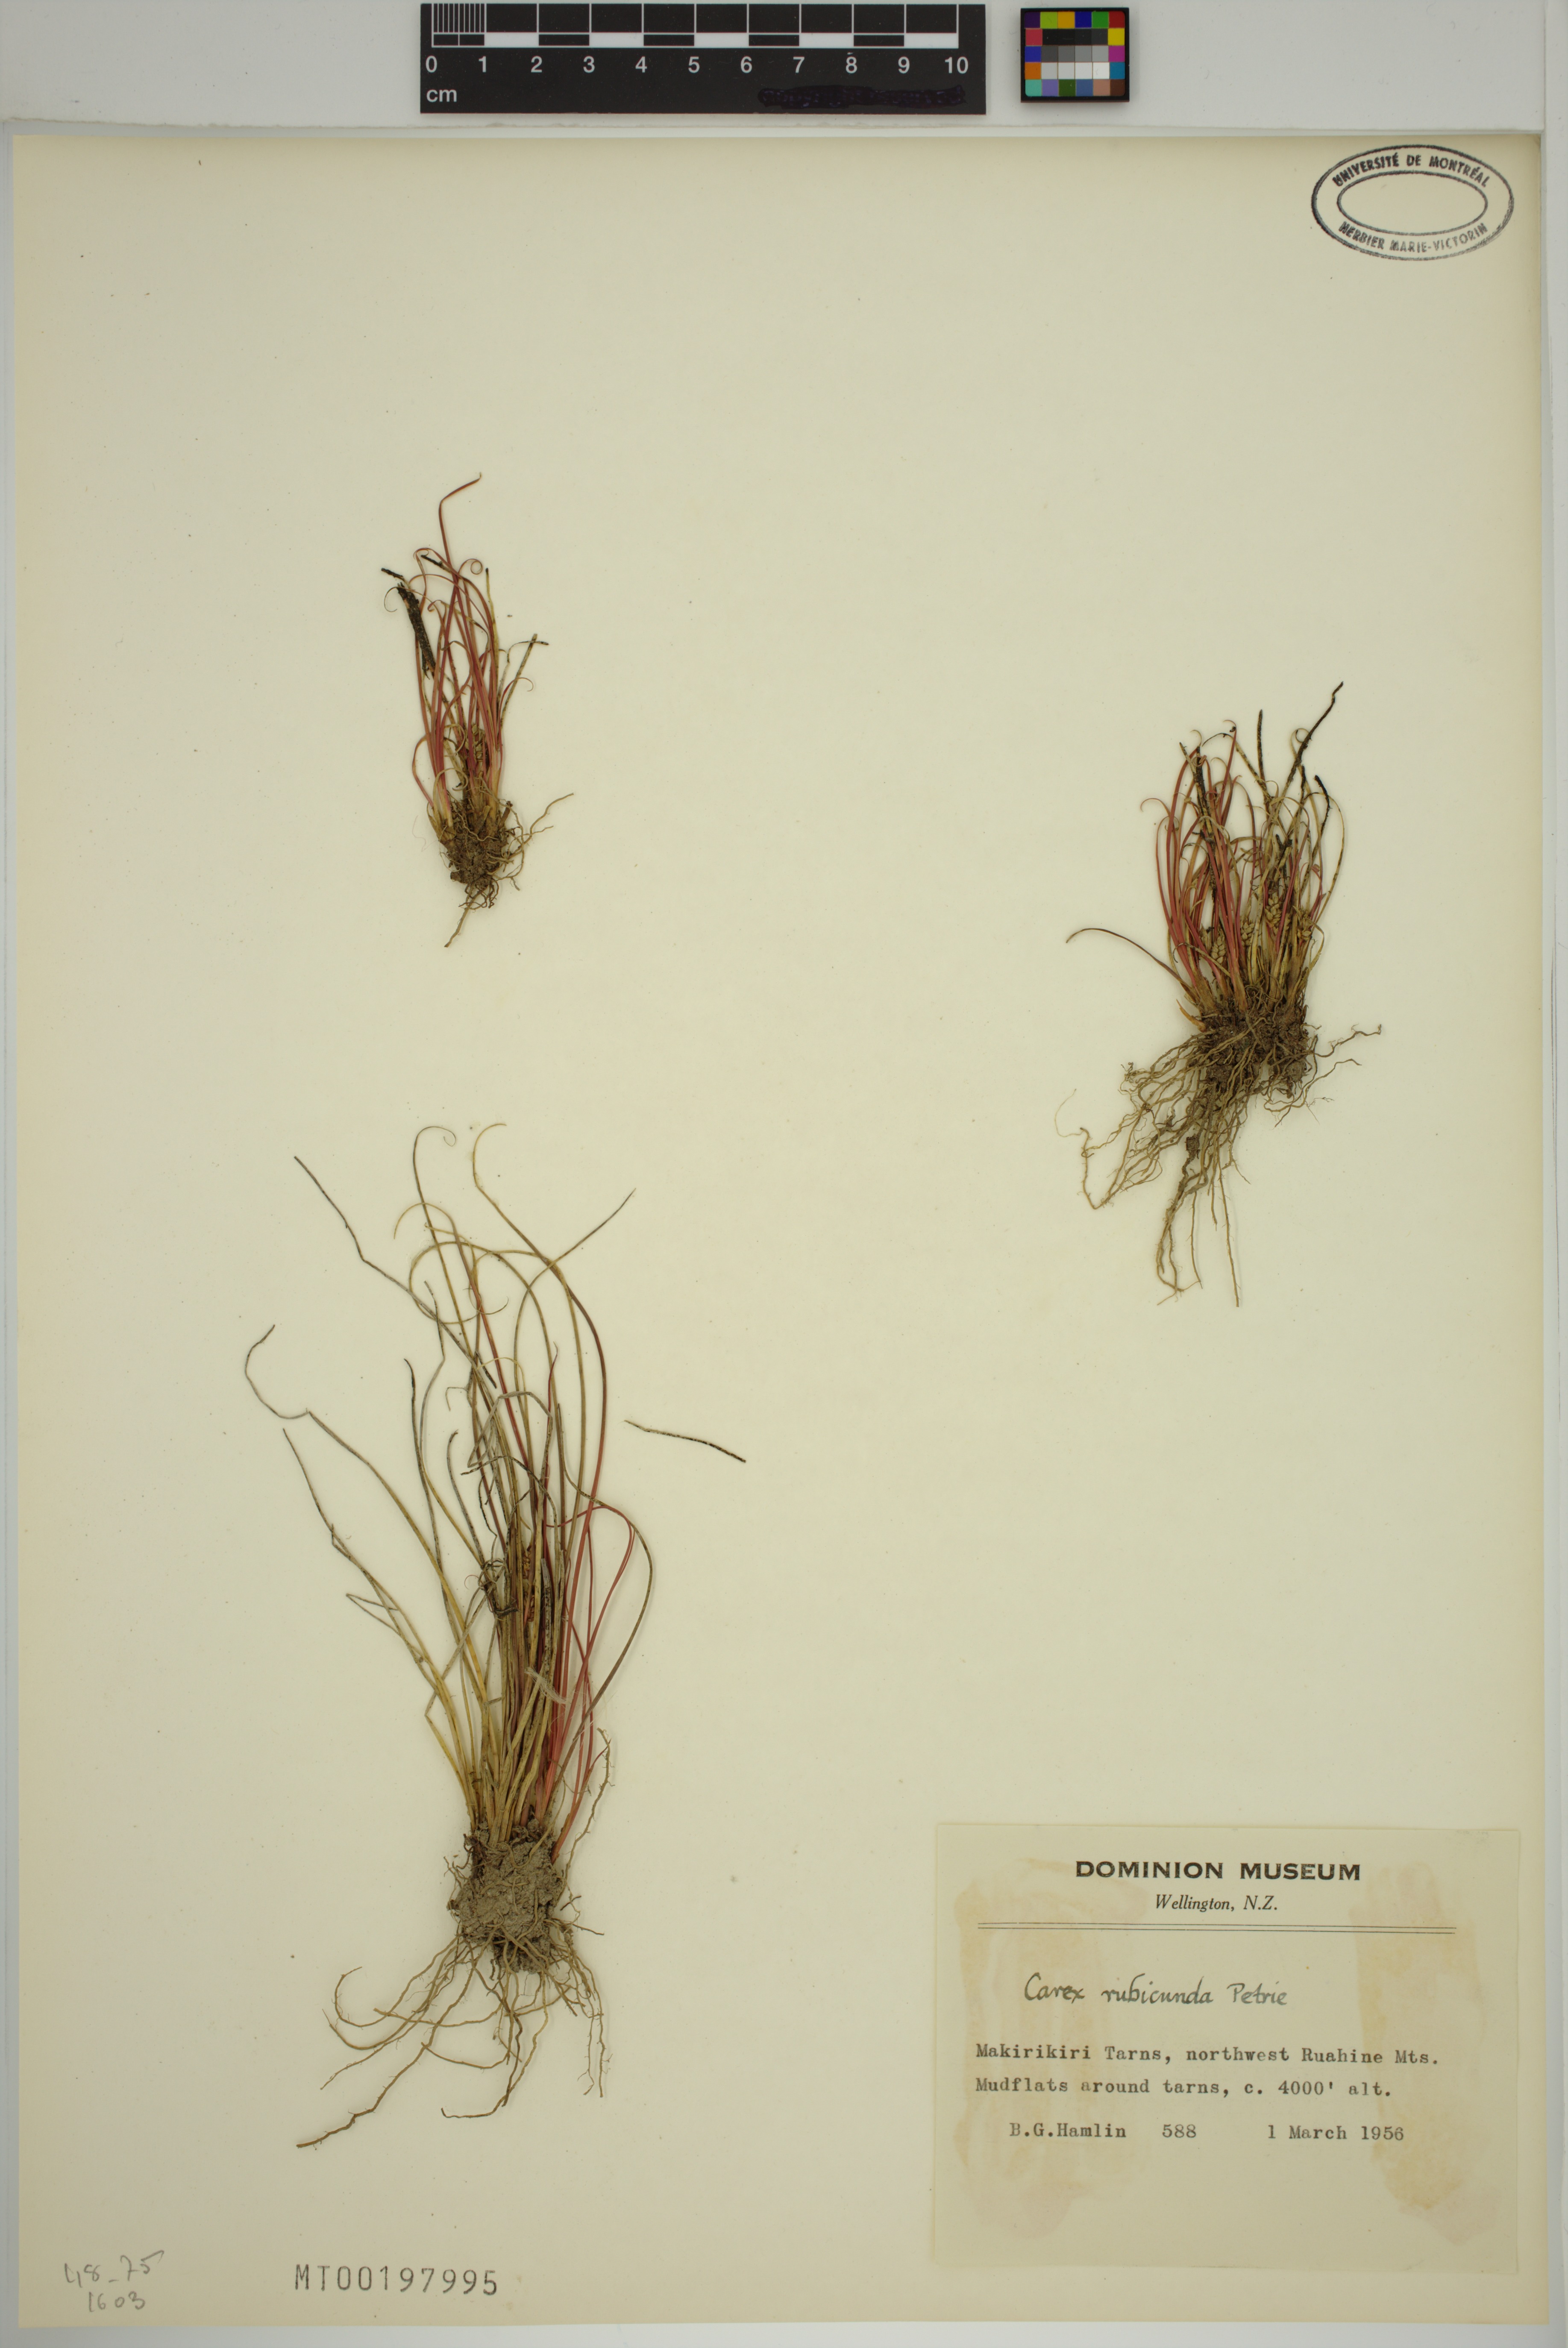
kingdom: Plantae
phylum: Tracheophyta
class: Liliopsida
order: Poales
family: Cyperaceae
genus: Carex
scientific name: Carex rubicunda
